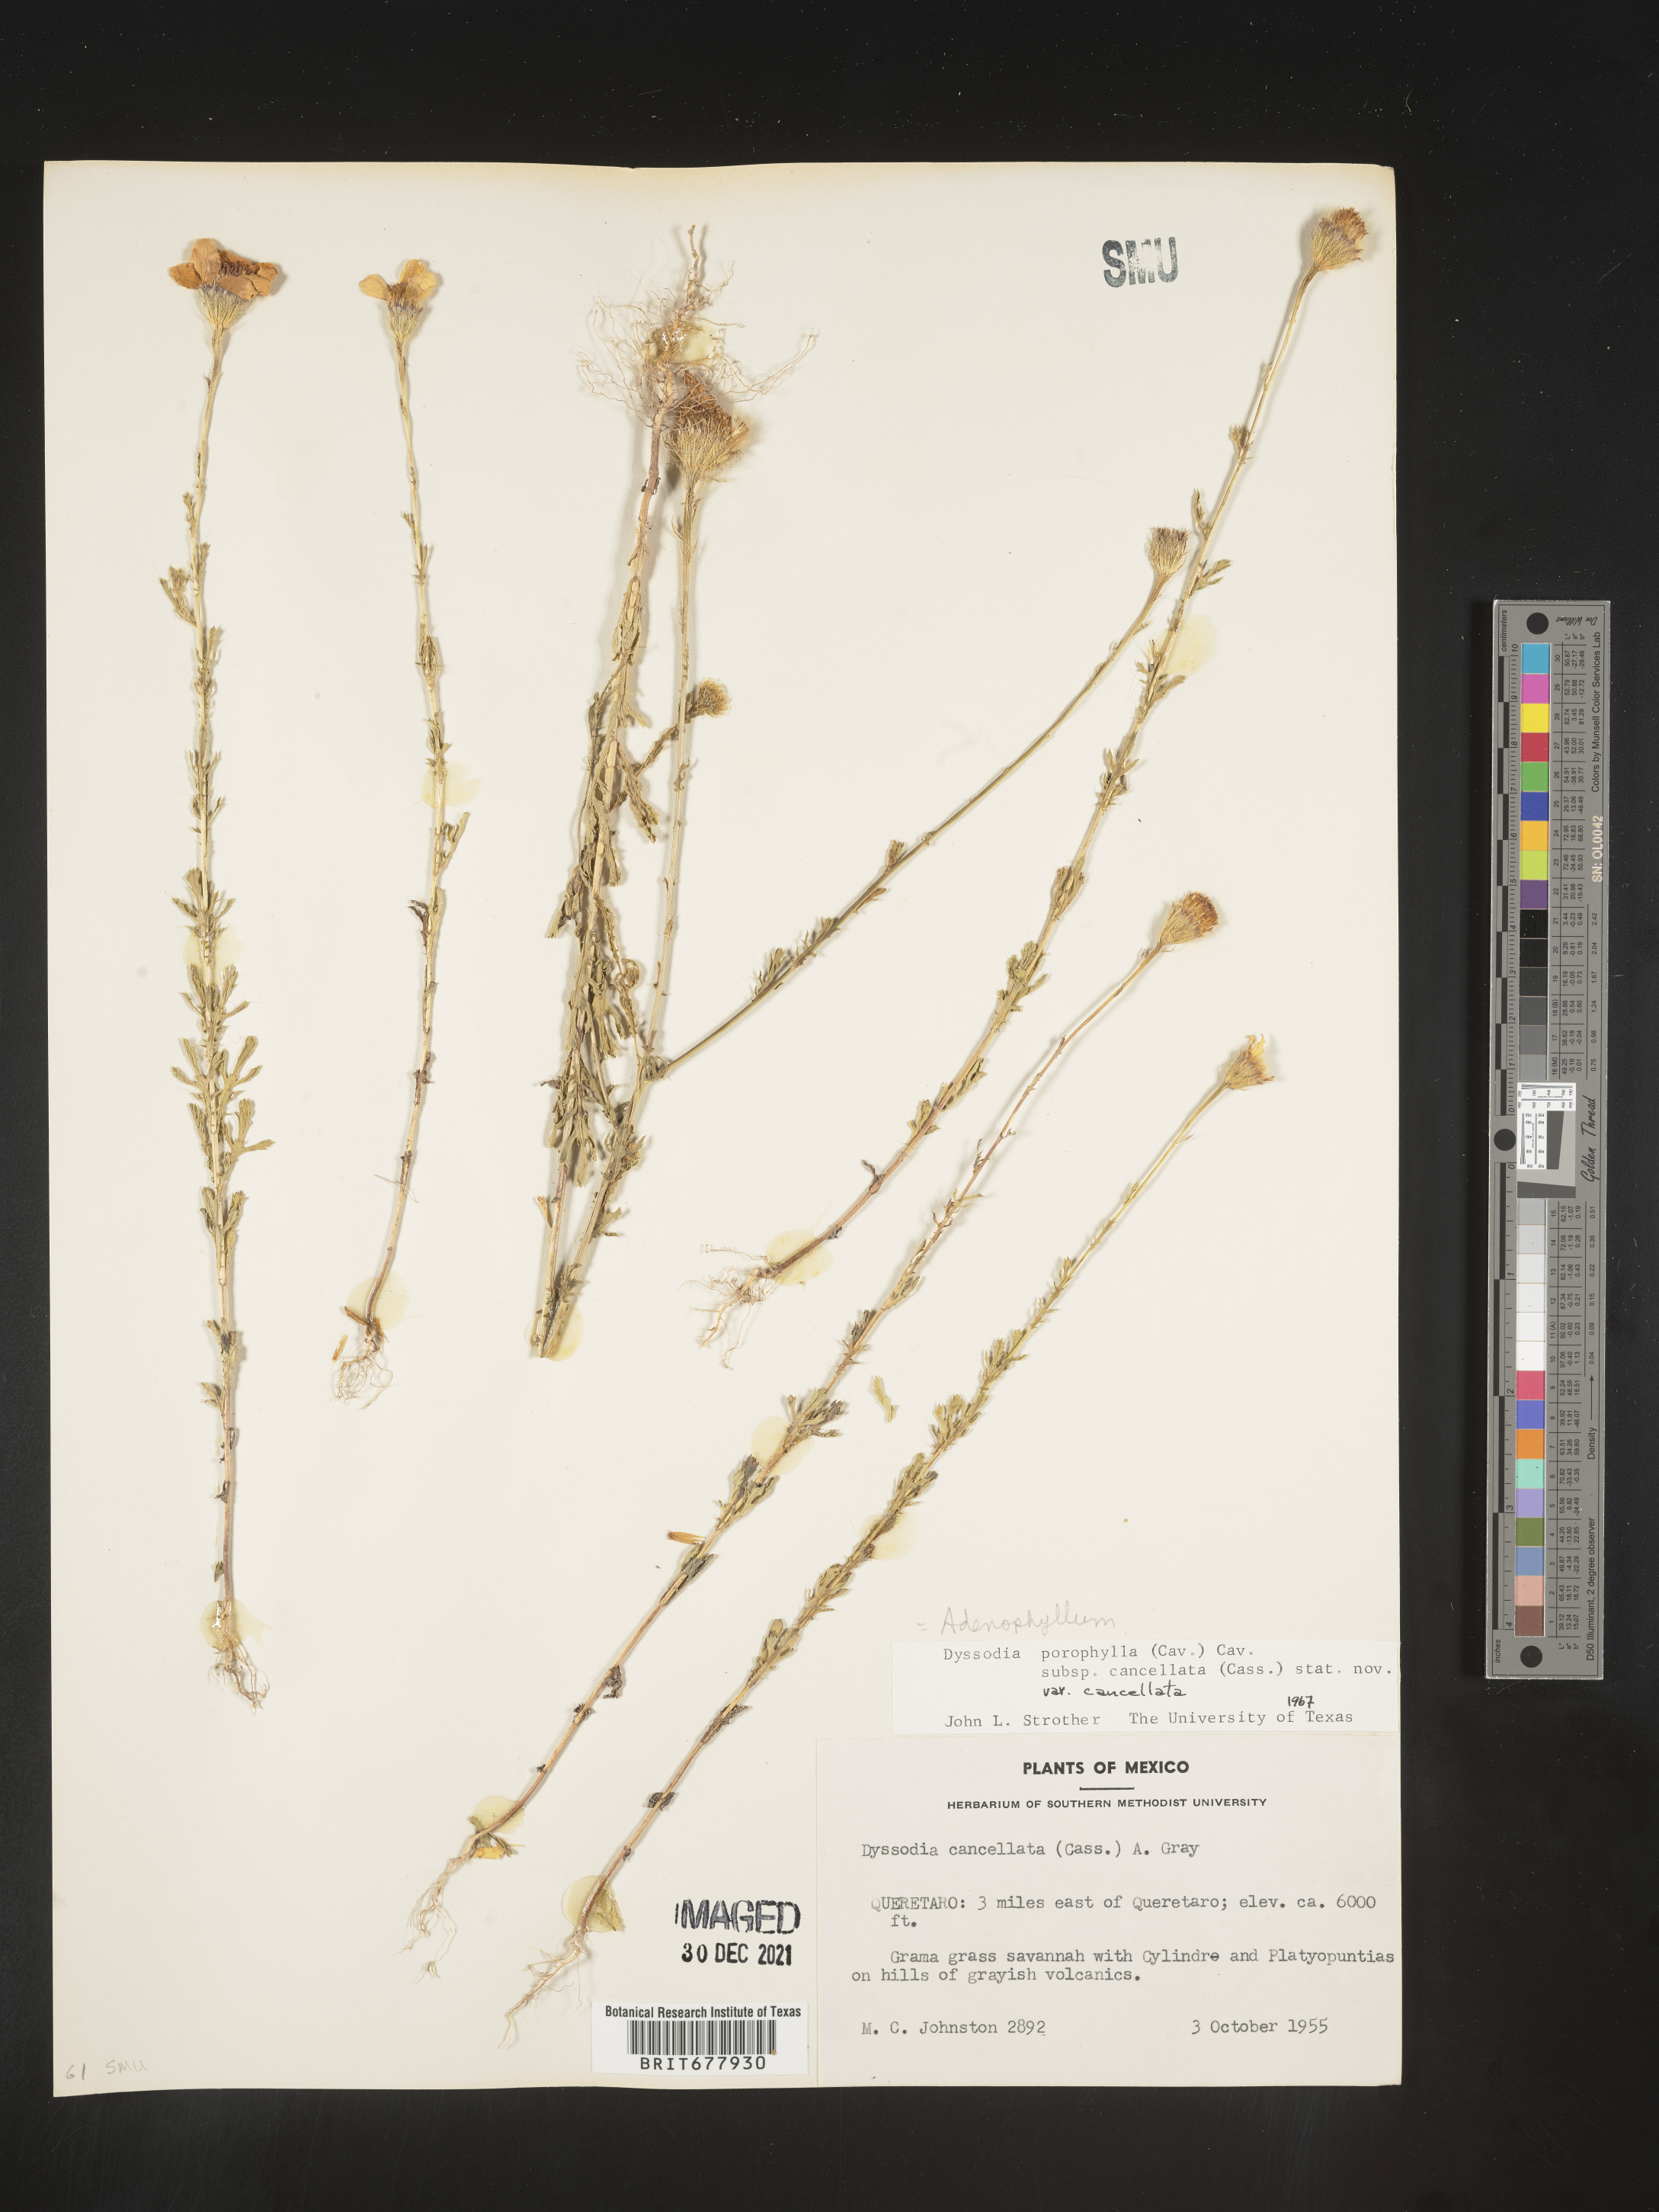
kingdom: Plantae
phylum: Tracheophyta
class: Magnoliopsida
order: Asterales
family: Asteraceae
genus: Adenophyllum
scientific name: Adenophyllum porophyllum
